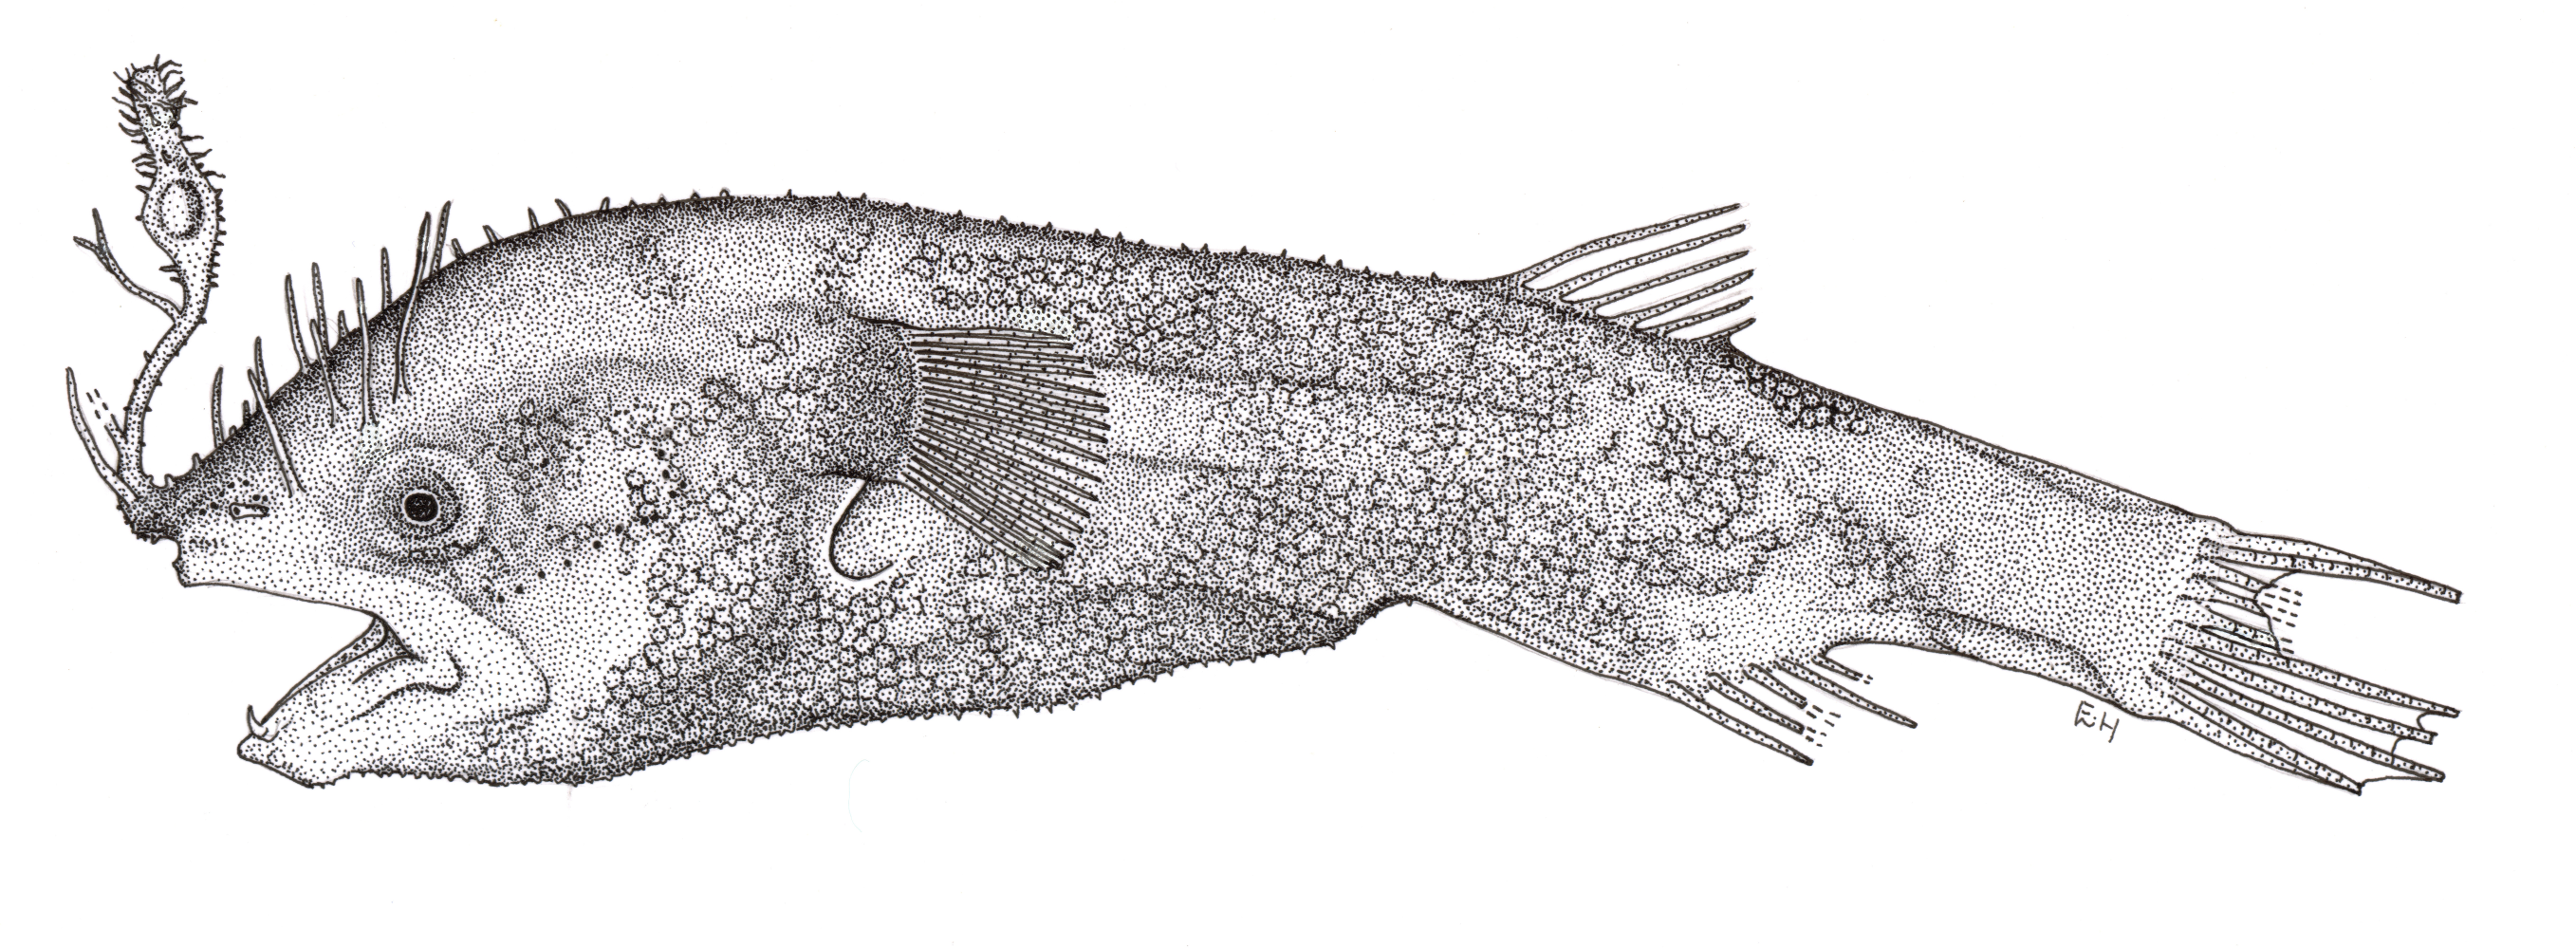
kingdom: Animalia
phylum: Chordata
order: Lophiiformes
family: Gigantactinidae
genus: Gigantactis
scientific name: Gigantactis meadi
